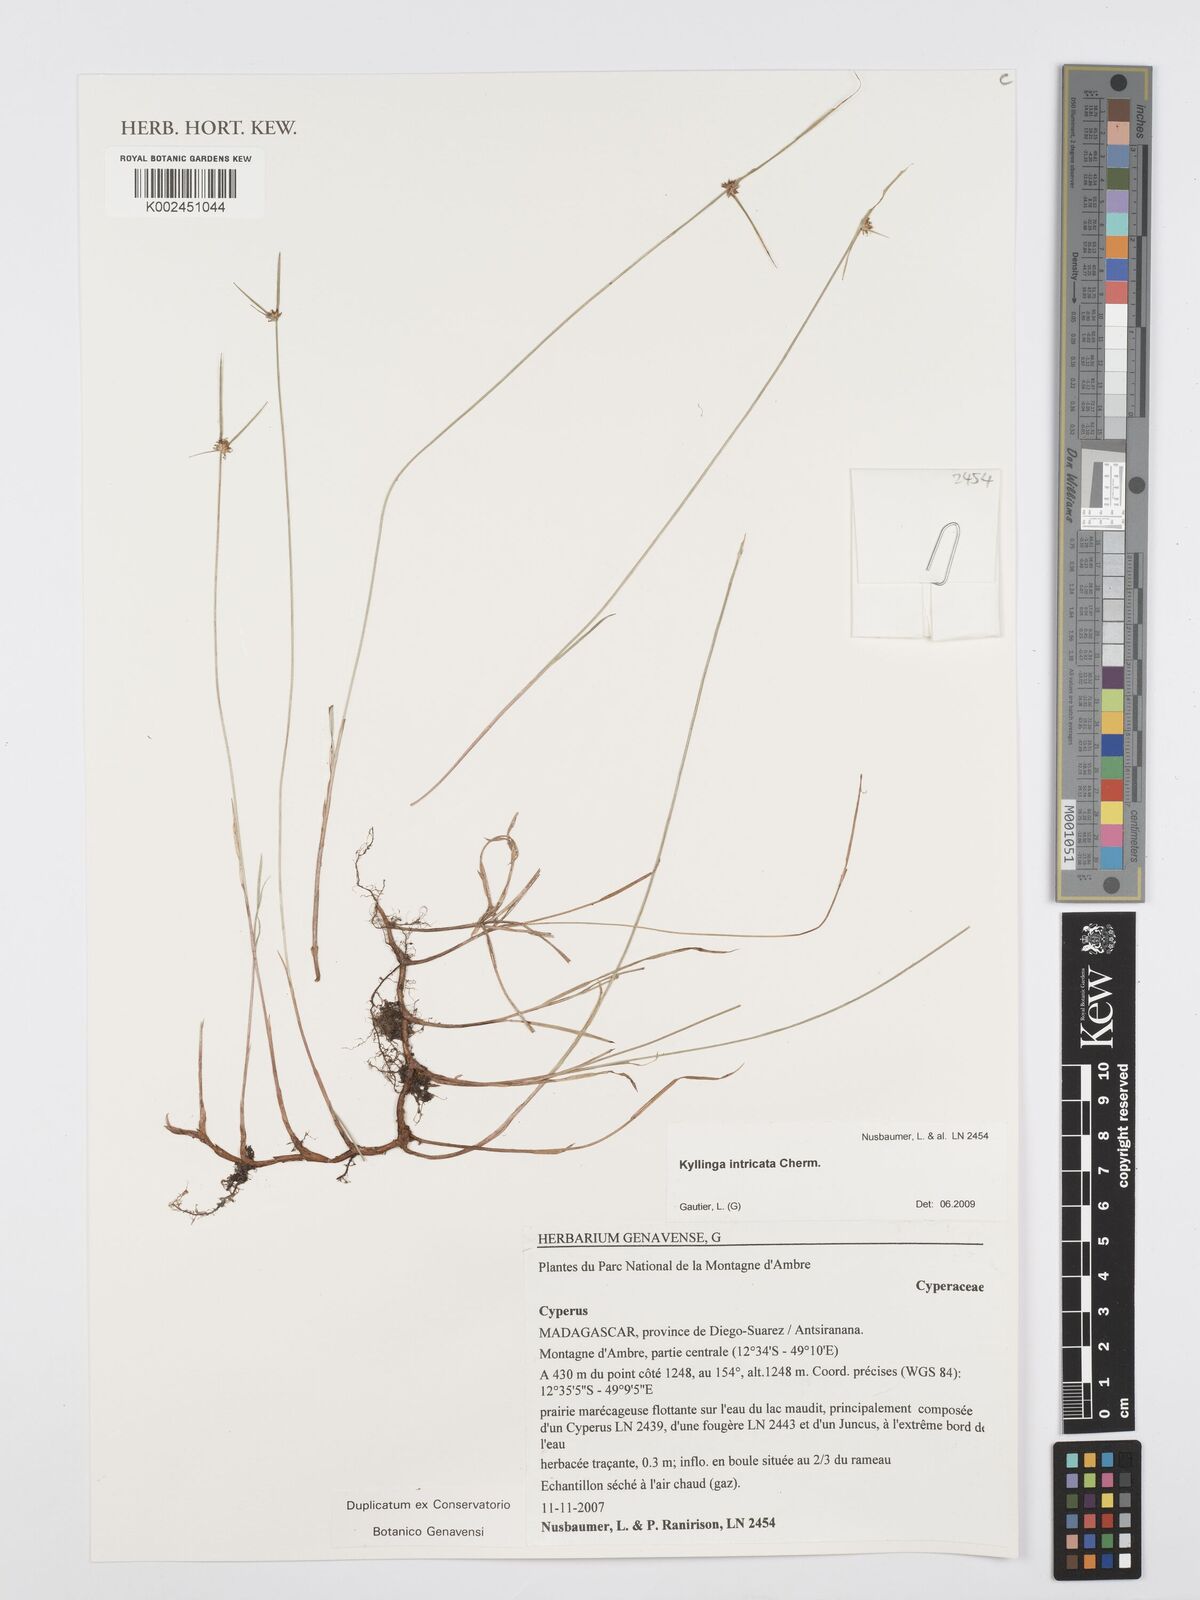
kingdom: Plantae
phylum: Tracheophyta
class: Liliopsida
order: Poales
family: Cyperaceae
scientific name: Cyperaceae
